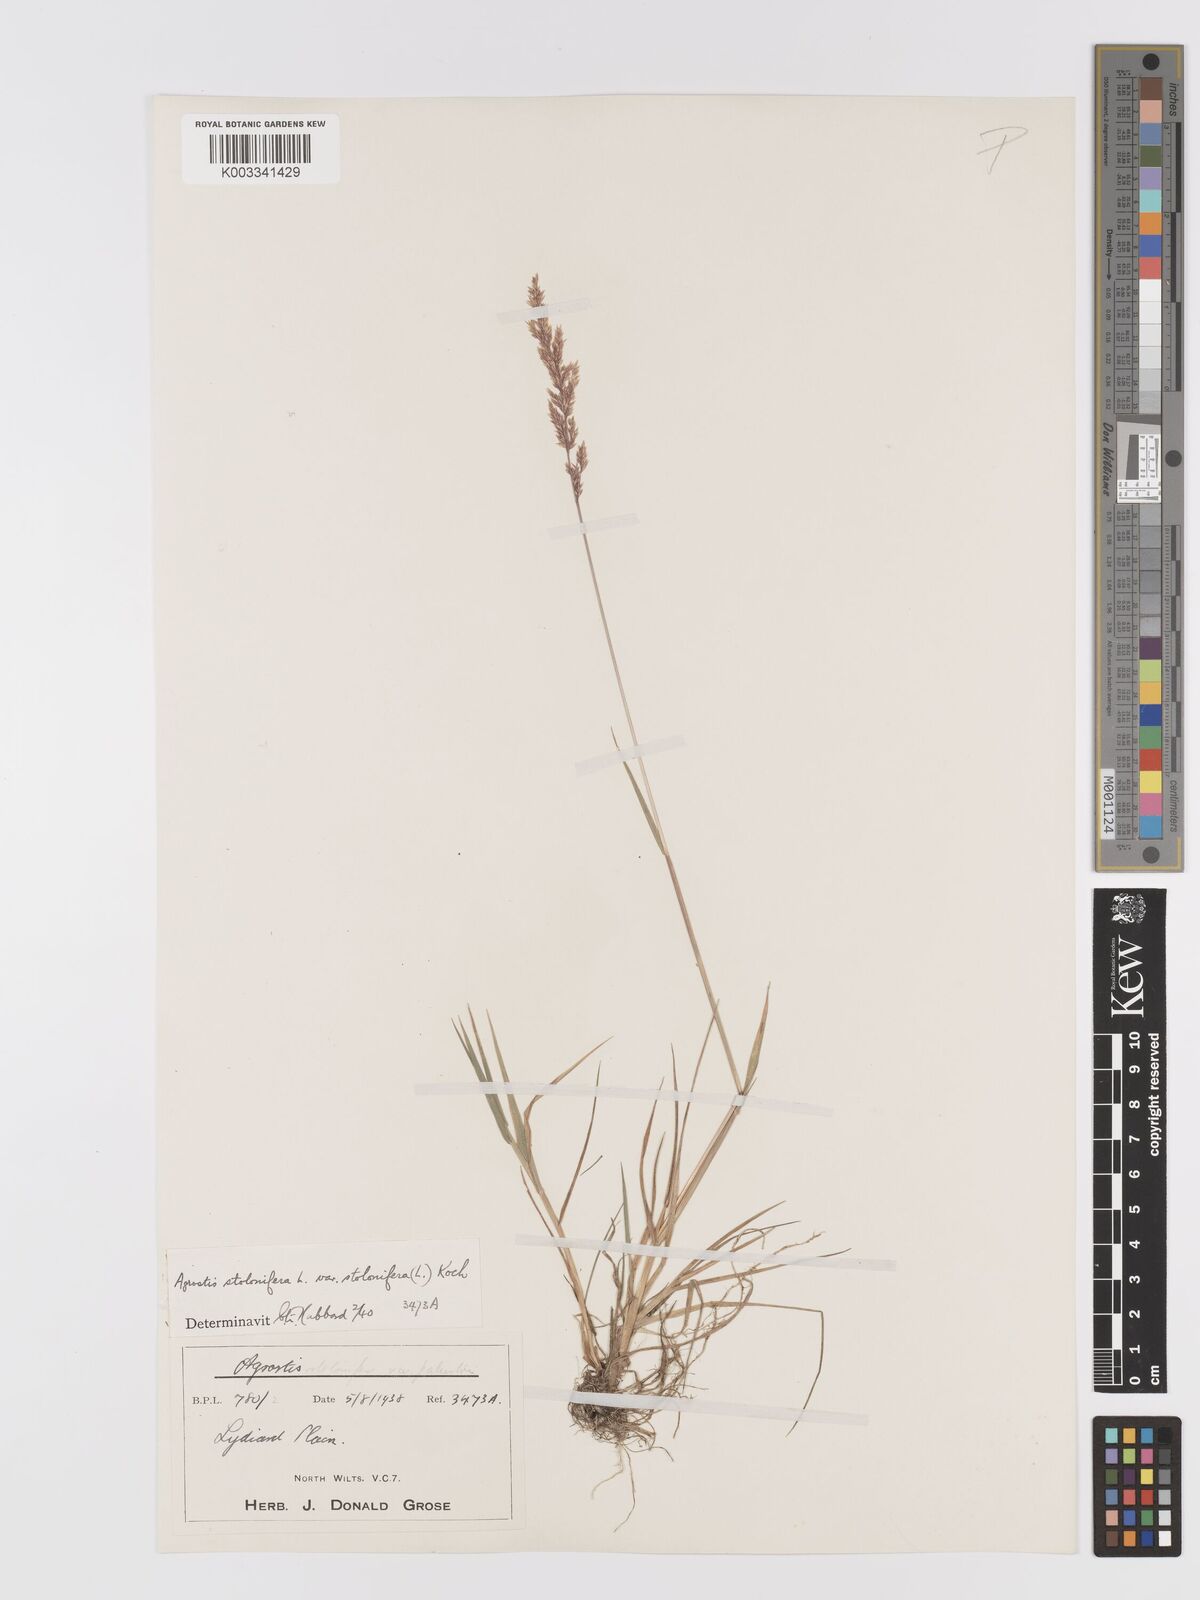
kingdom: Plantae
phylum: Tracheophyta
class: Liliopsida
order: Poales
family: Poaceae
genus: Agrostis
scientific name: Agrostis stolonifera
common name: Creeping bentgrass
